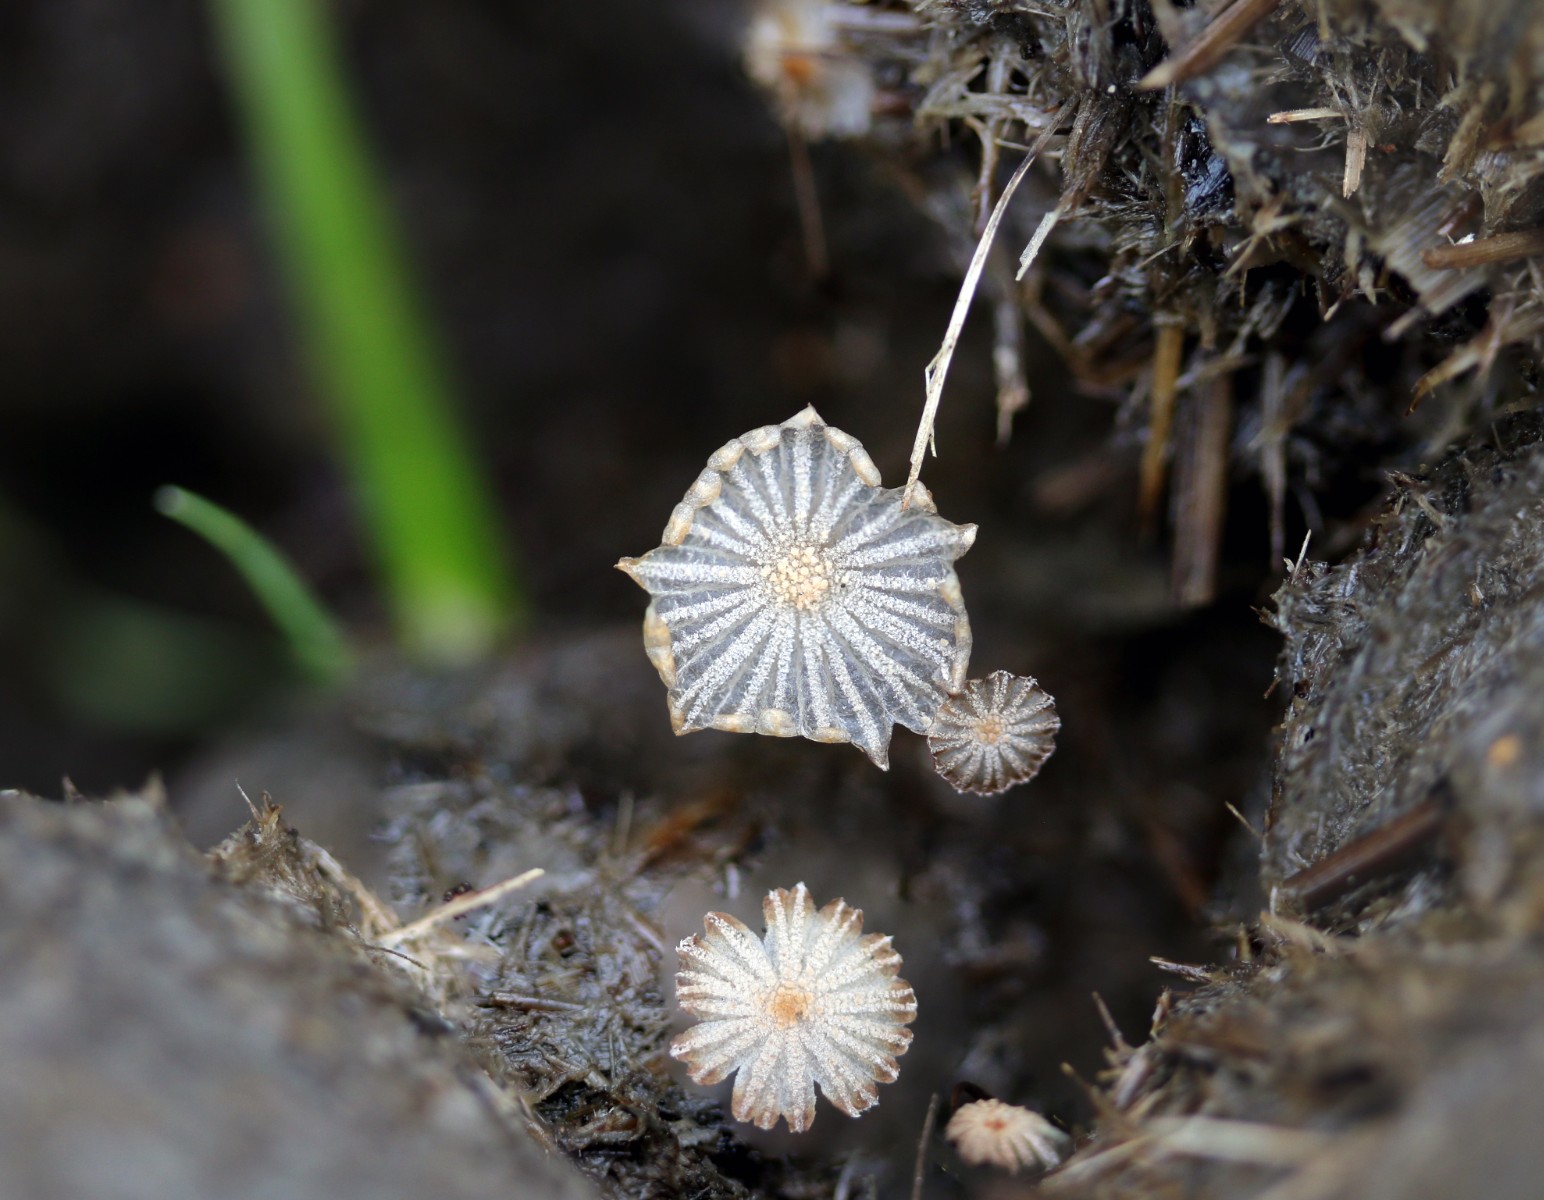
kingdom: Fungi
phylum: Basidiomycota
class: Agaricomycetes
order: Agaricales
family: Psathyrellaceae
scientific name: Psathyrellaceae
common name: mørkhatfamilien
